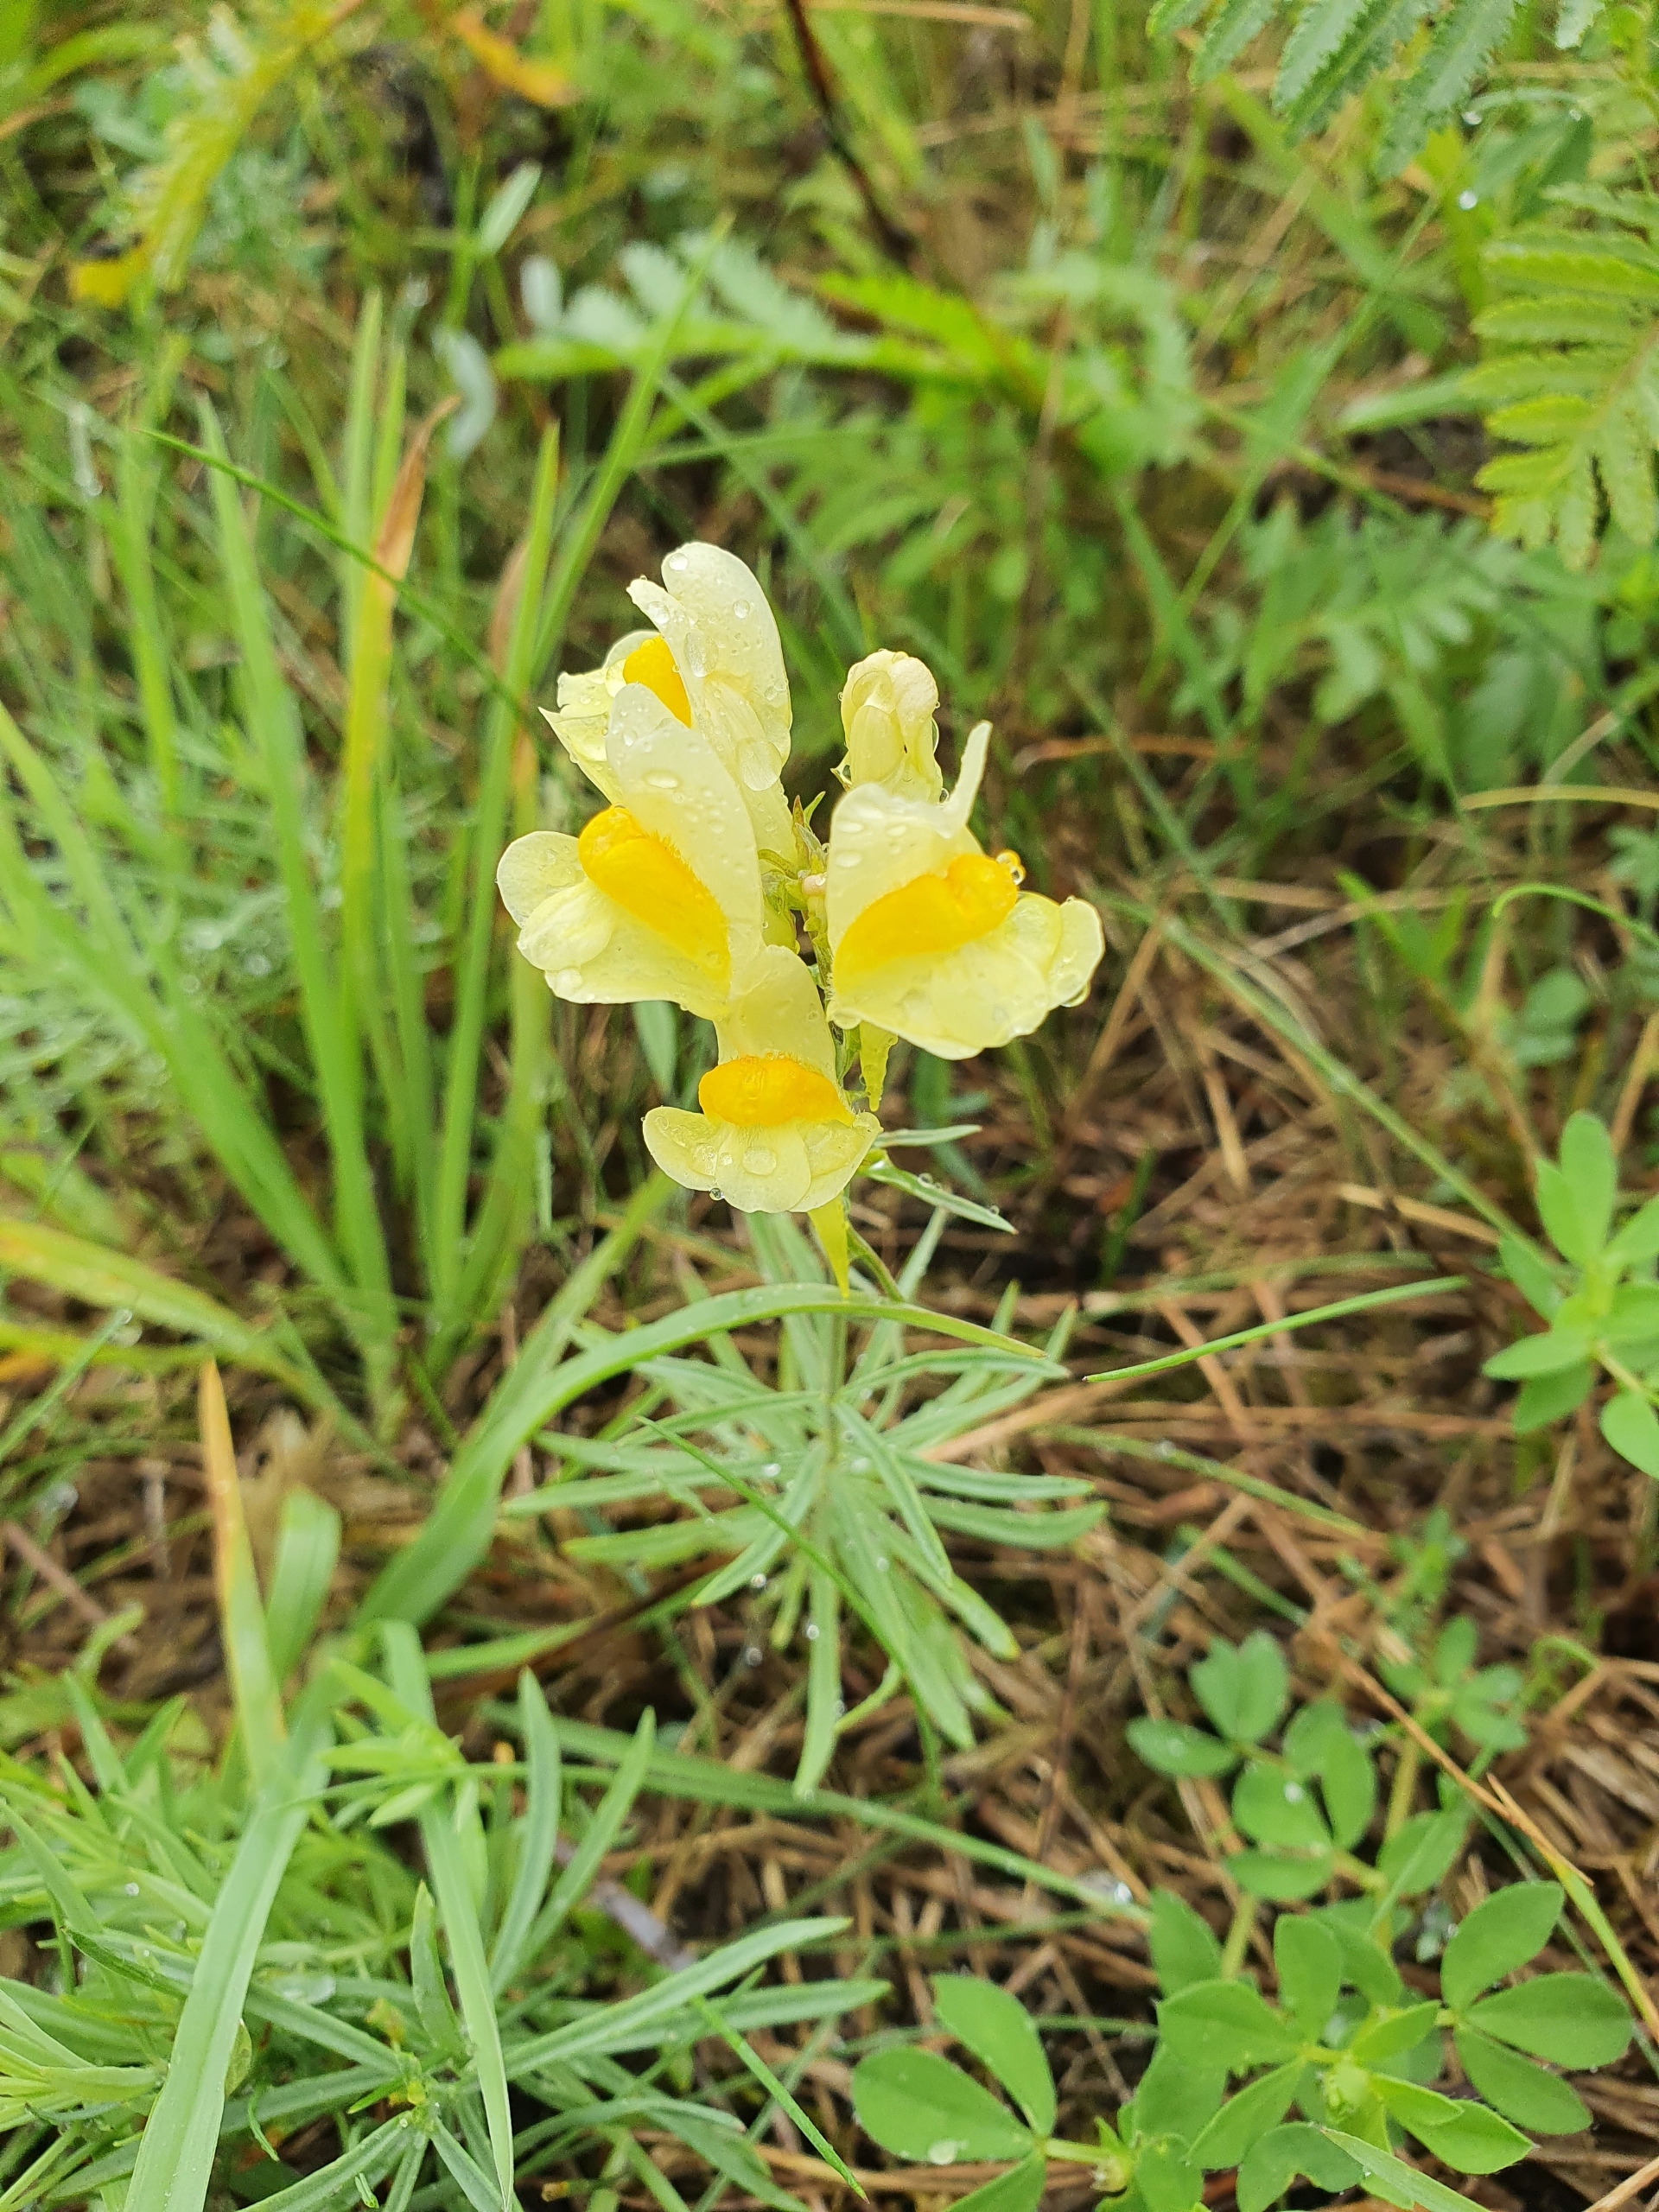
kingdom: Plantae
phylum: Tracheophyta
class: Magnoliopsida
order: Lamiales
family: Plantaginaceae
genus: Linaria
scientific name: Linaria vulgaris
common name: Almindelig torskemund
